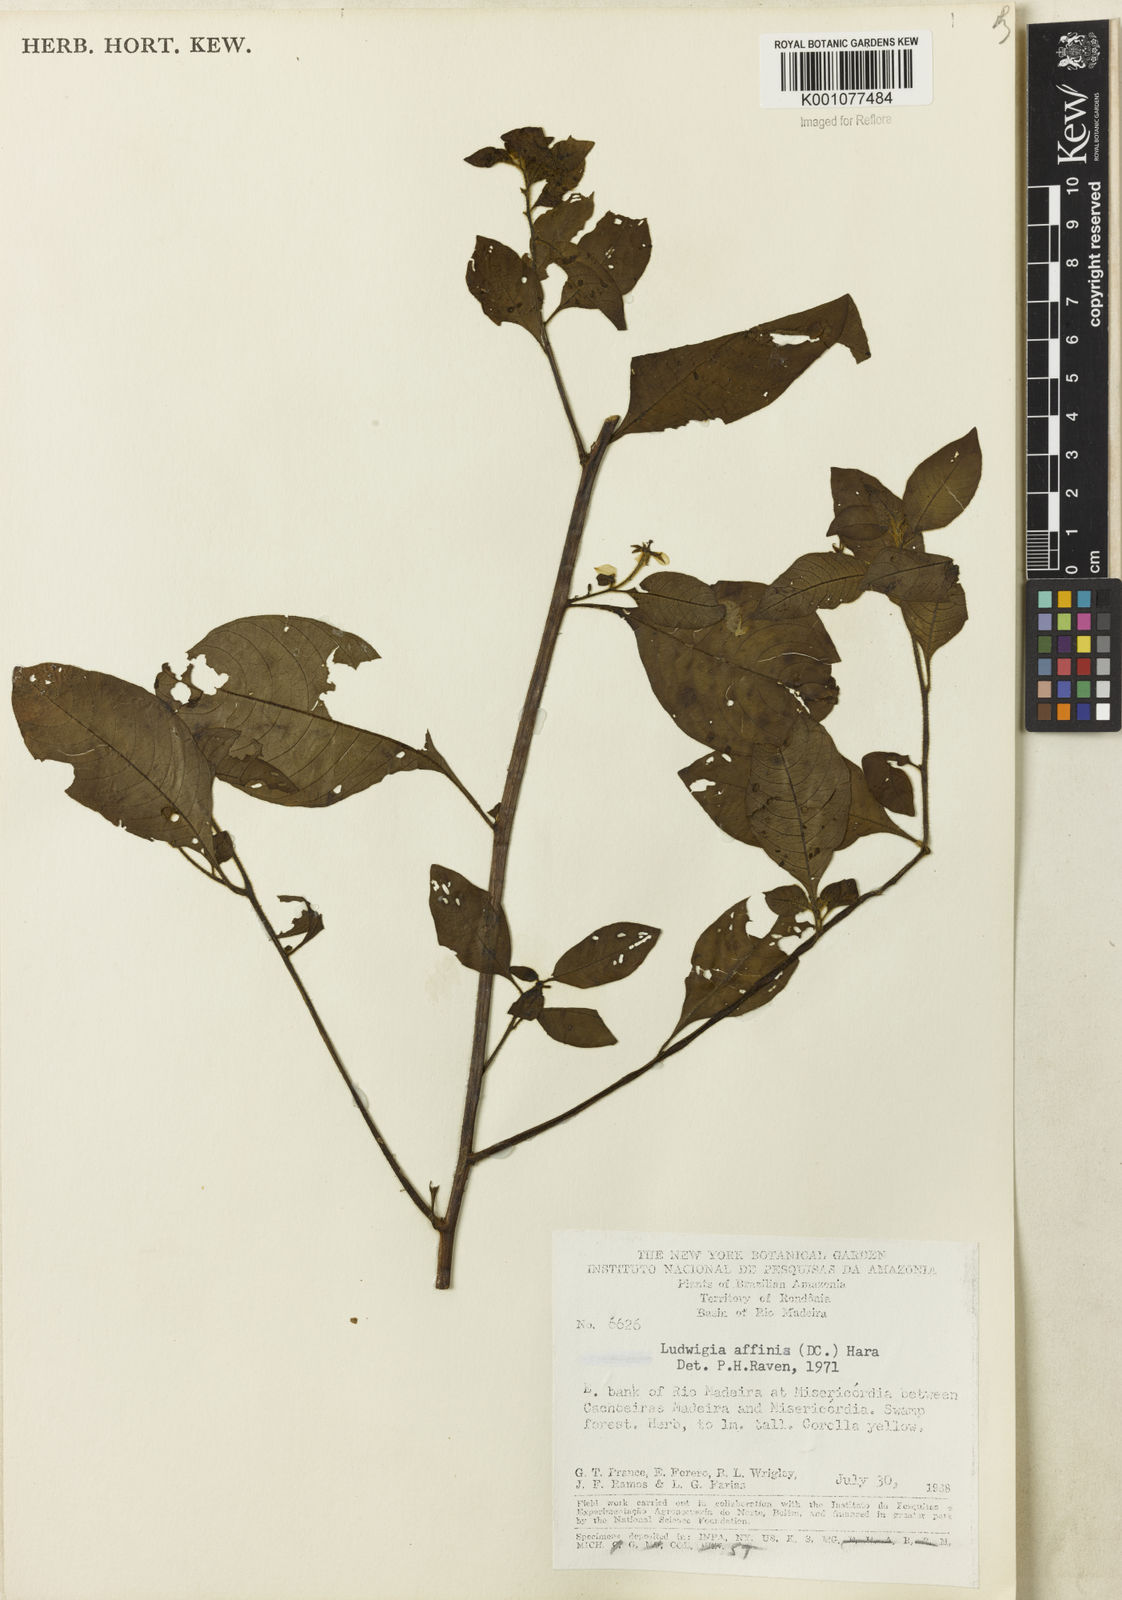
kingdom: Plantae
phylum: Tracheophyta
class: Magnoliopsida
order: Myrtales
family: Onagraceae
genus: Ludwigia
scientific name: Ludwigia affinis
